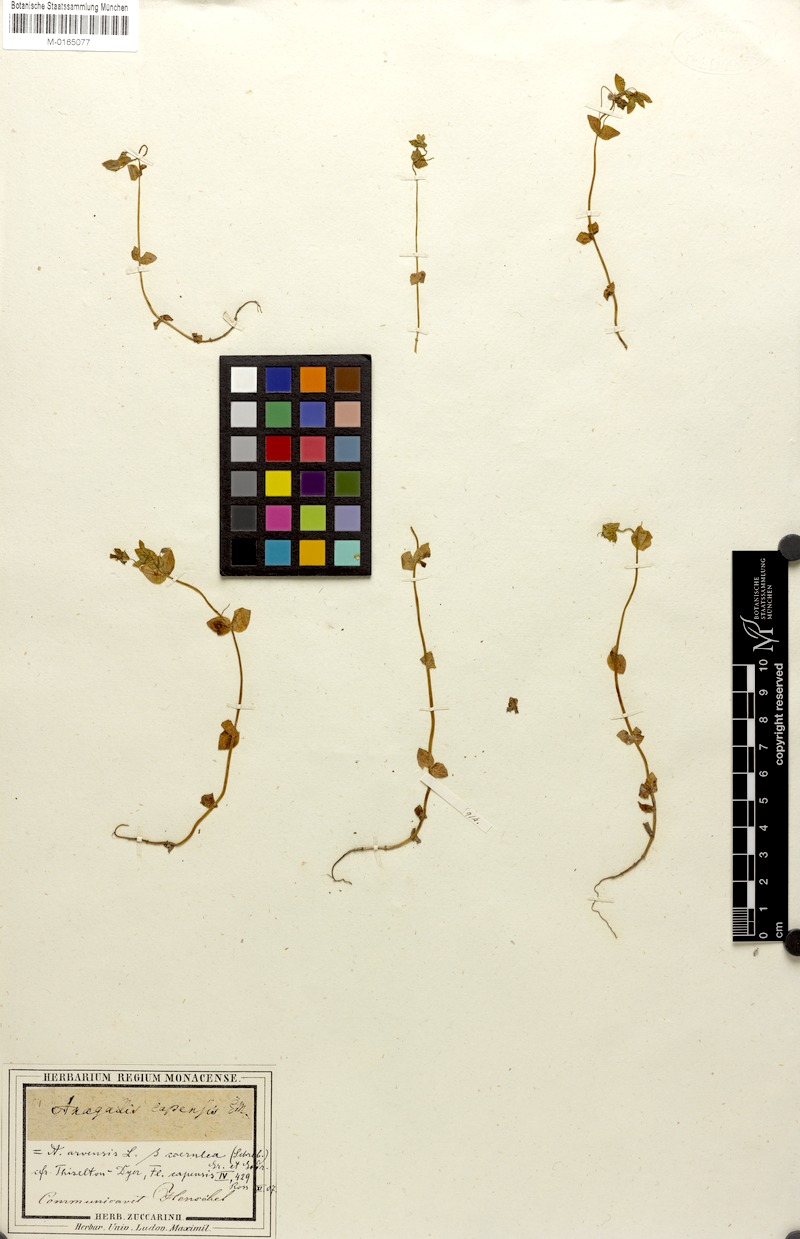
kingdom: Plantae
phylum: Tracheophyta
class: Magnoliopsida
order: Ericales
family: Primulaceae
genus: Lysimachia
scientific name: Lysimachia arvensis
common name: Scarlet pimpernel
